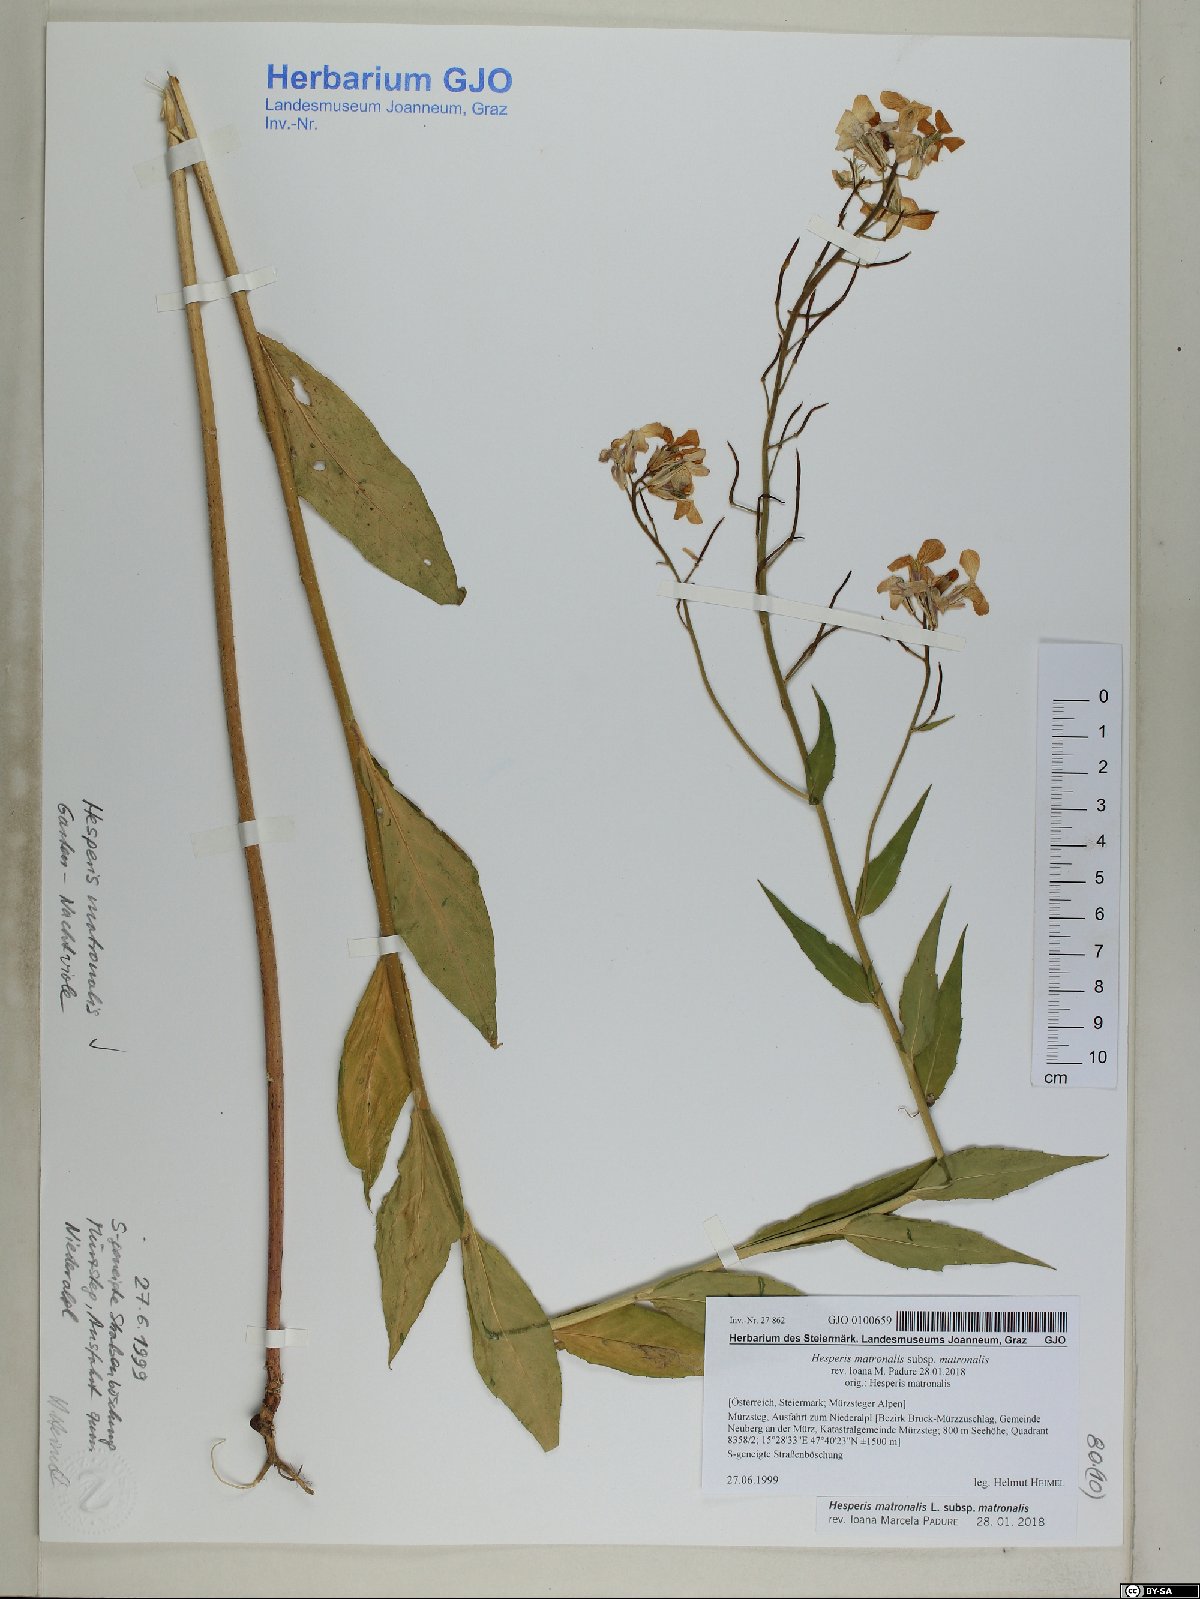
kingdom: Plantae
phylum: Tracheophyta
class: Magnoliopsida
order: Brassicales
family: Brassicaceae
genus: Hesperis
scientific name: Hesperis matronalis
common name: Dame's-violet
